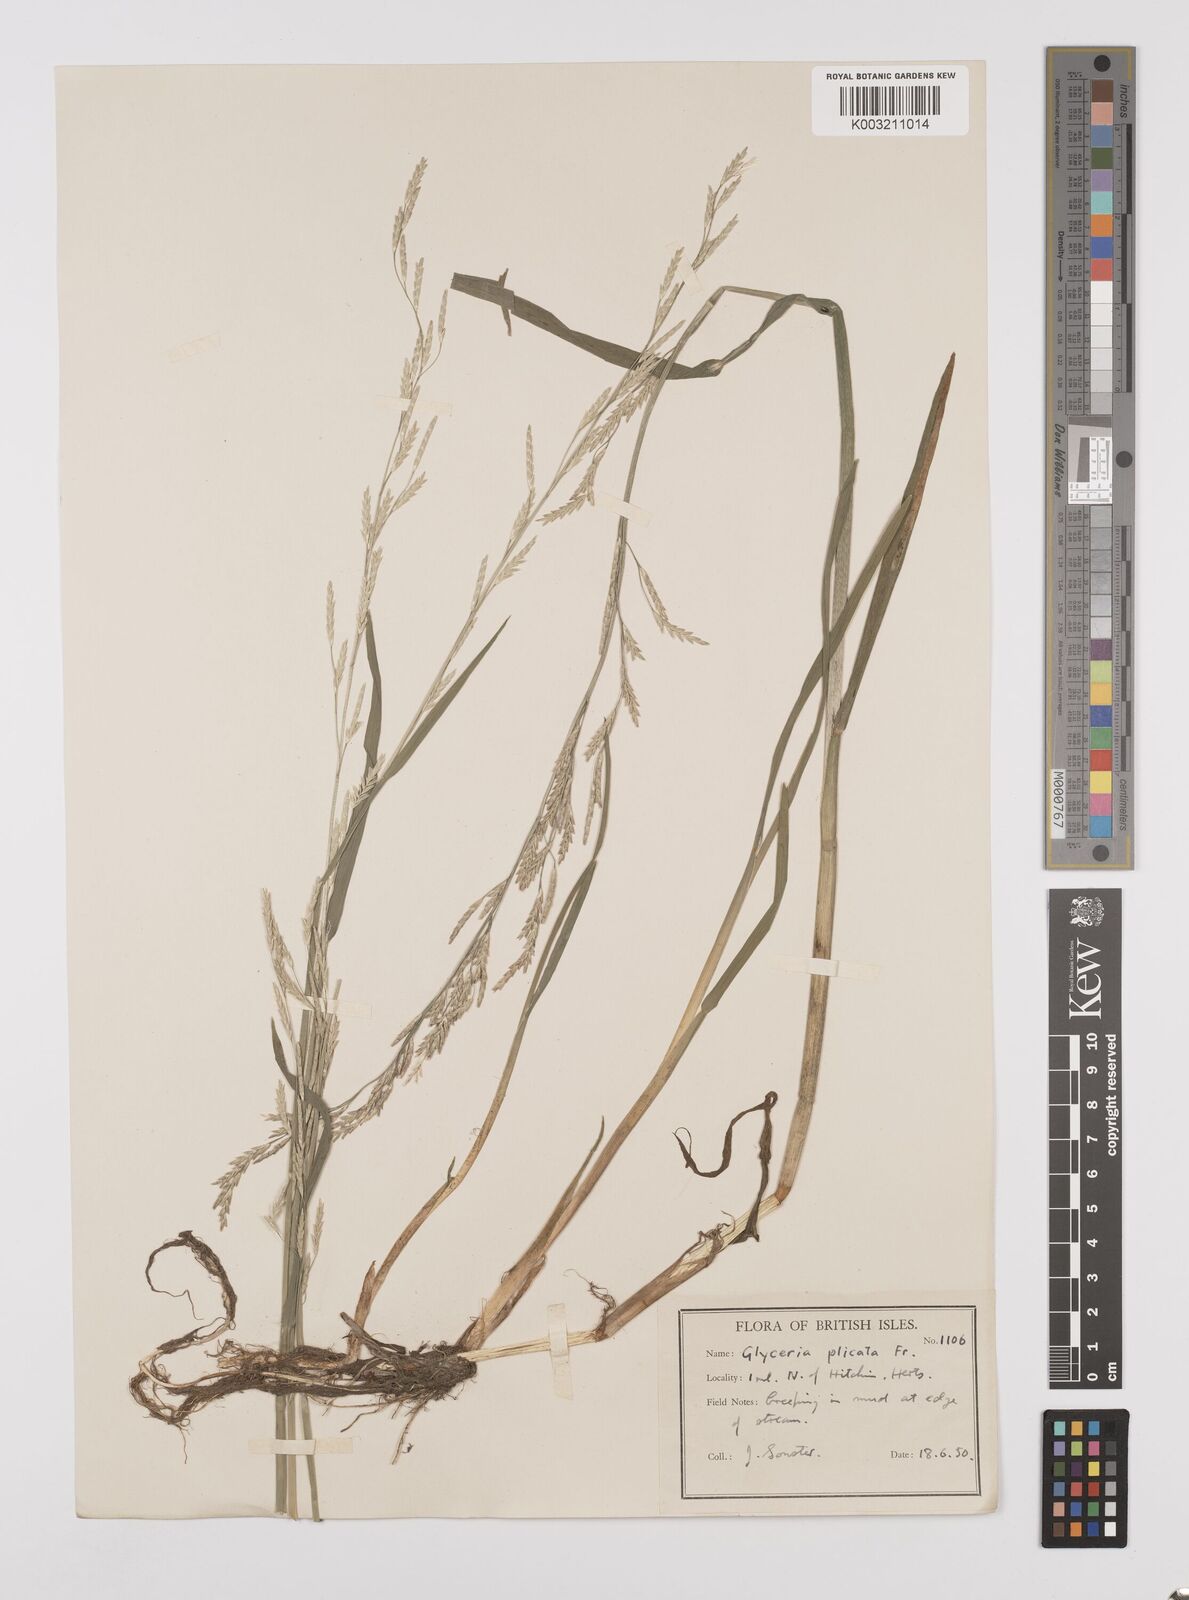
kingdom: Plantae
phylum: Tracheophyta
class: Liliopsida
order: Poales
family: Poaceae
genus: Glyceria
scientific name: Glyceria notata
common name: Plicate sweet-grass
